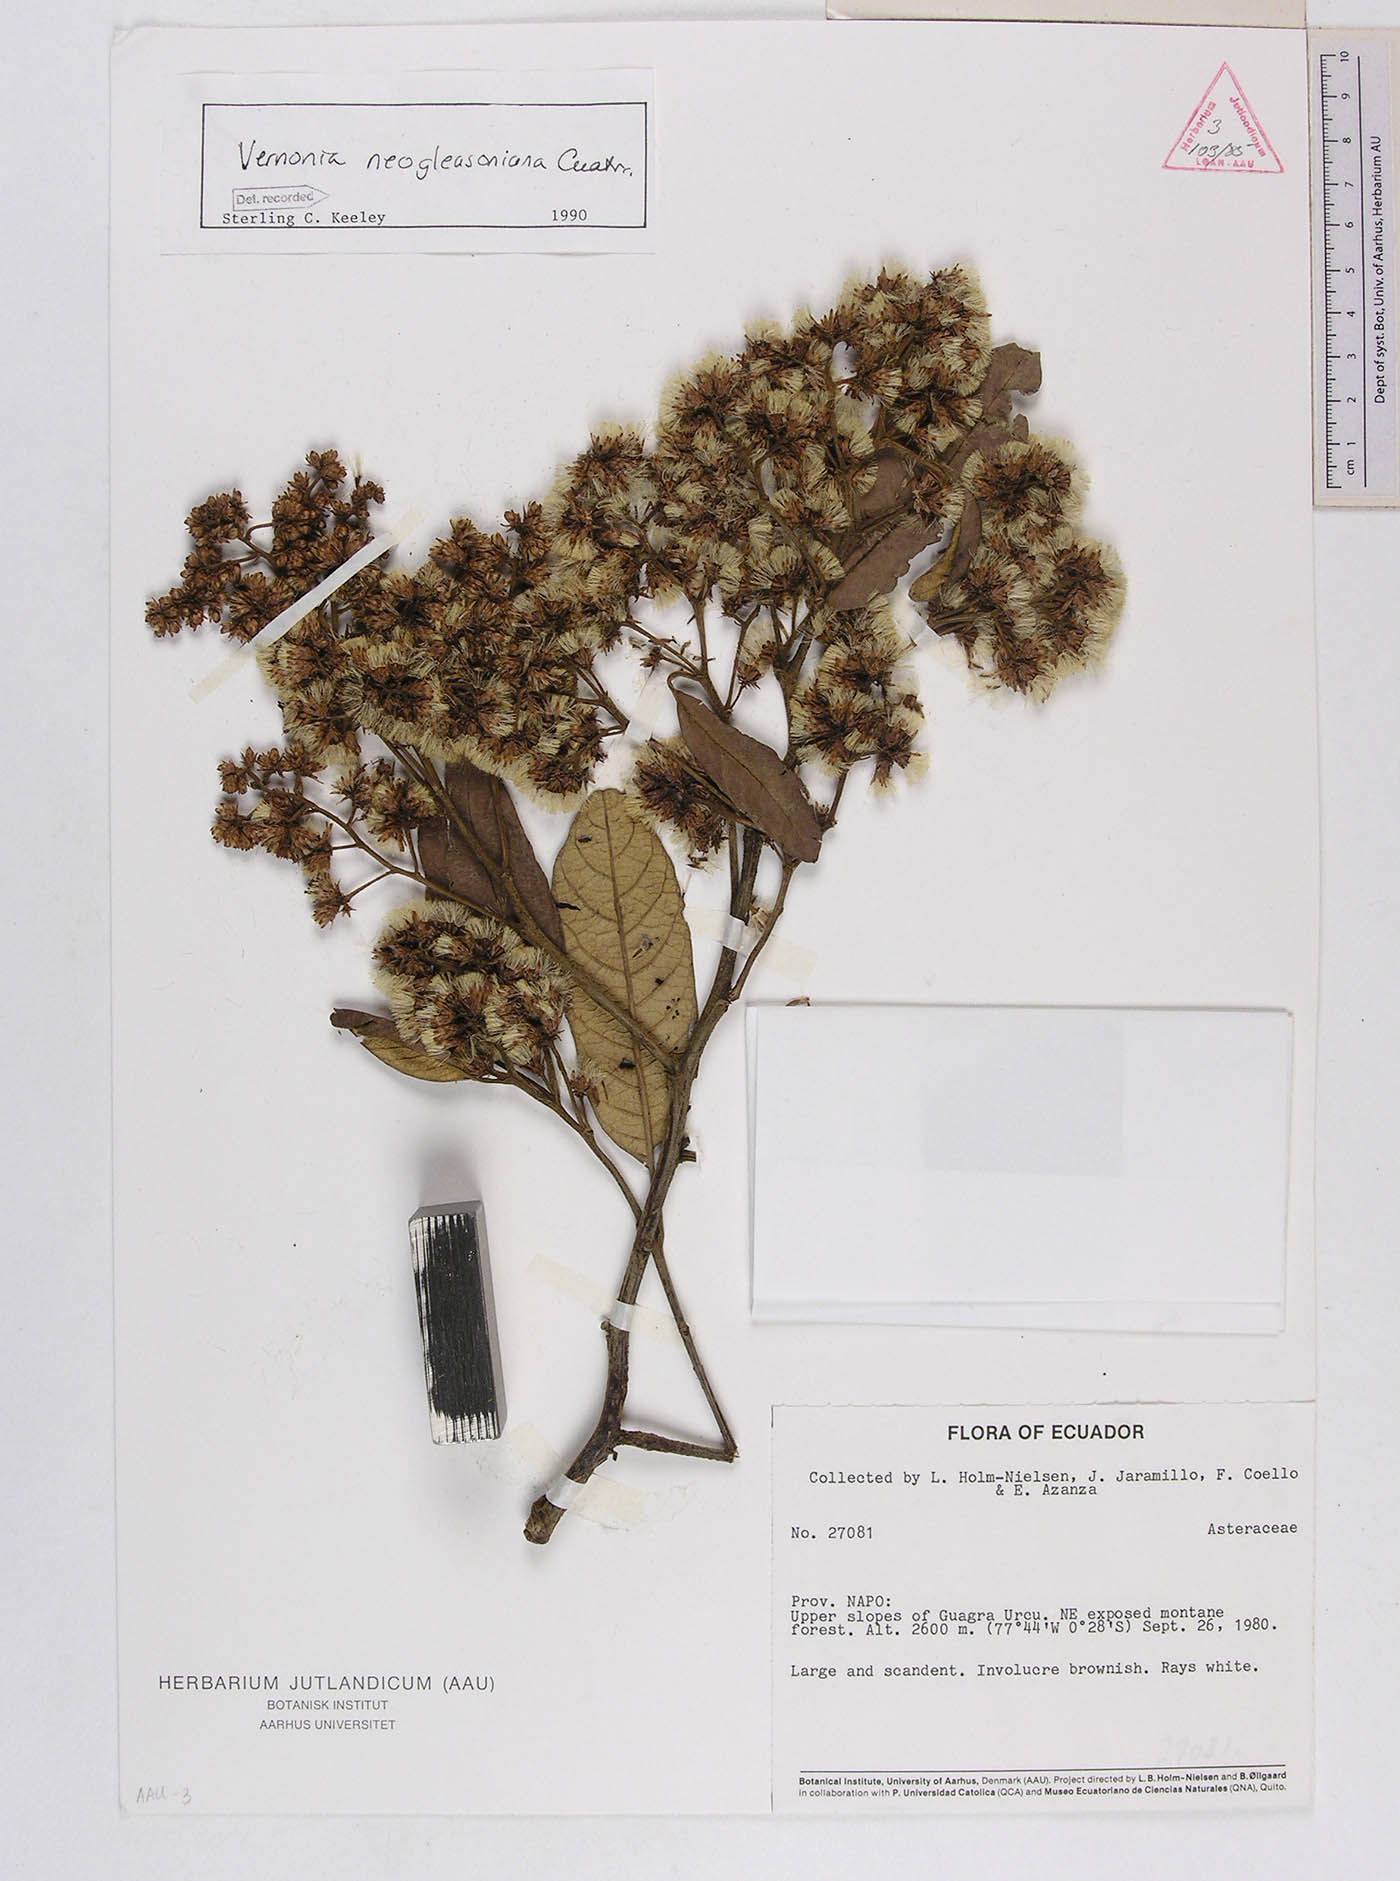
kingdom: Plantae
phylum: Tracheophyta
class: Magnoliopsida
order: Asterales
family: Asteraceae
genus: Critoniopsis
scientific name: Critoniopsis floribunda
